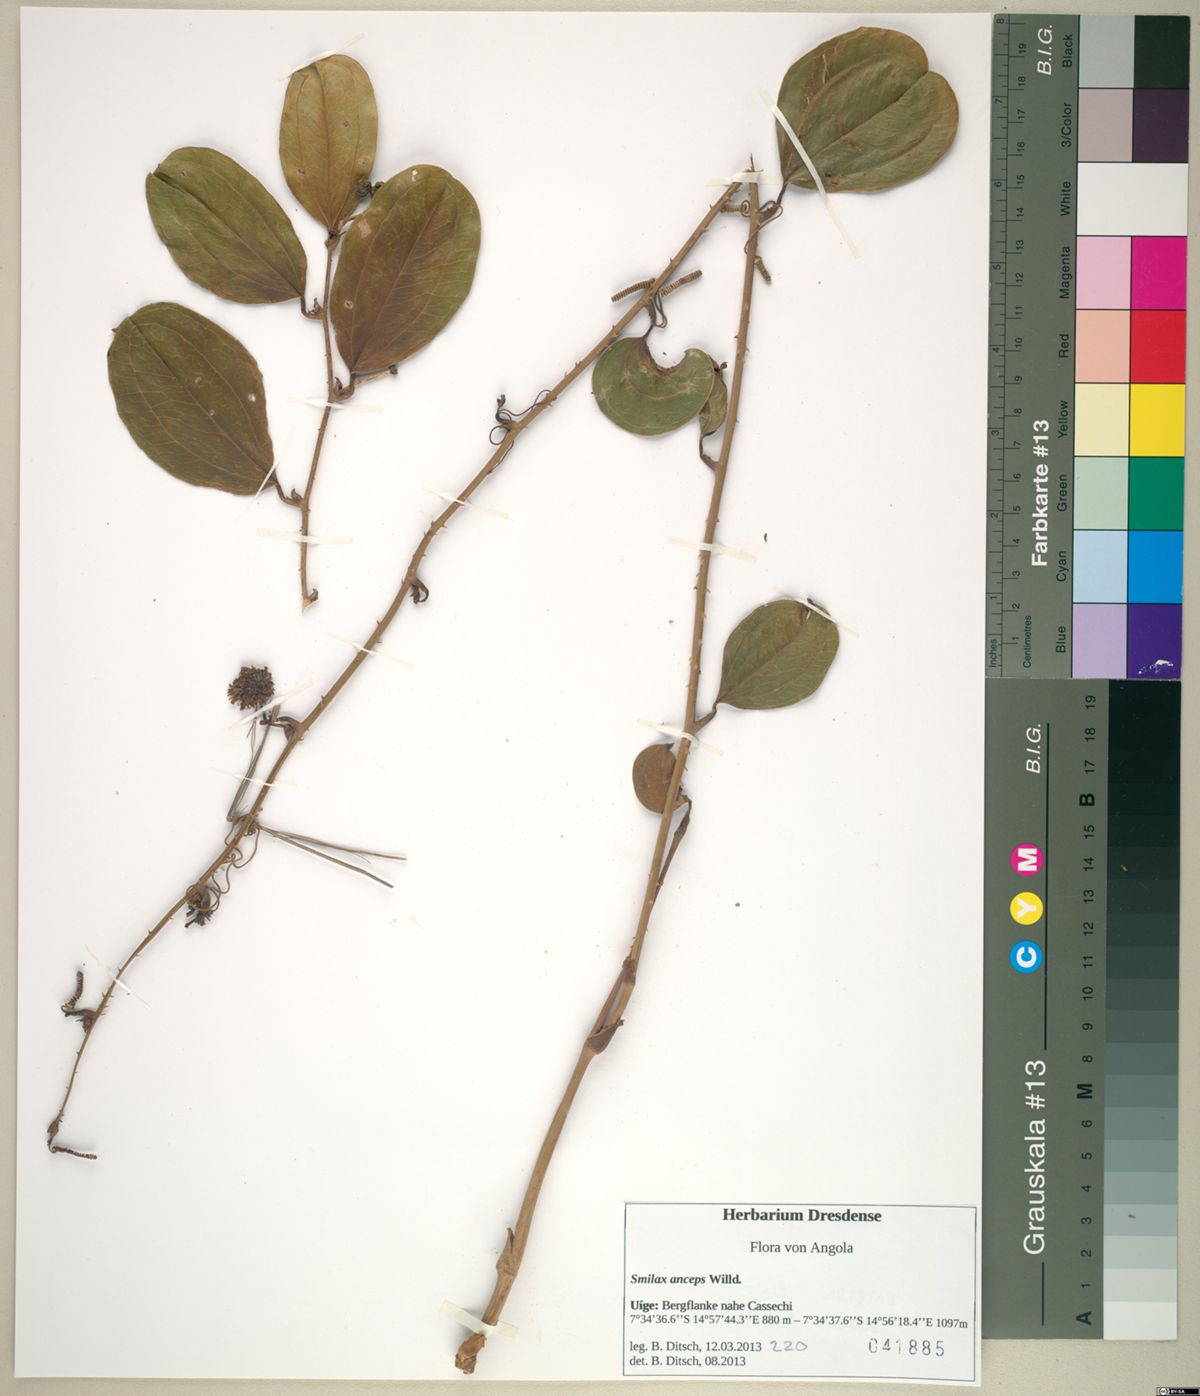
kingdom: Plantae
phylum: Tracheophyta
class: Liliopsida
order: Liliales
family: Smilacaceae
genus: Smilax
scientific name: Smilax anceps
